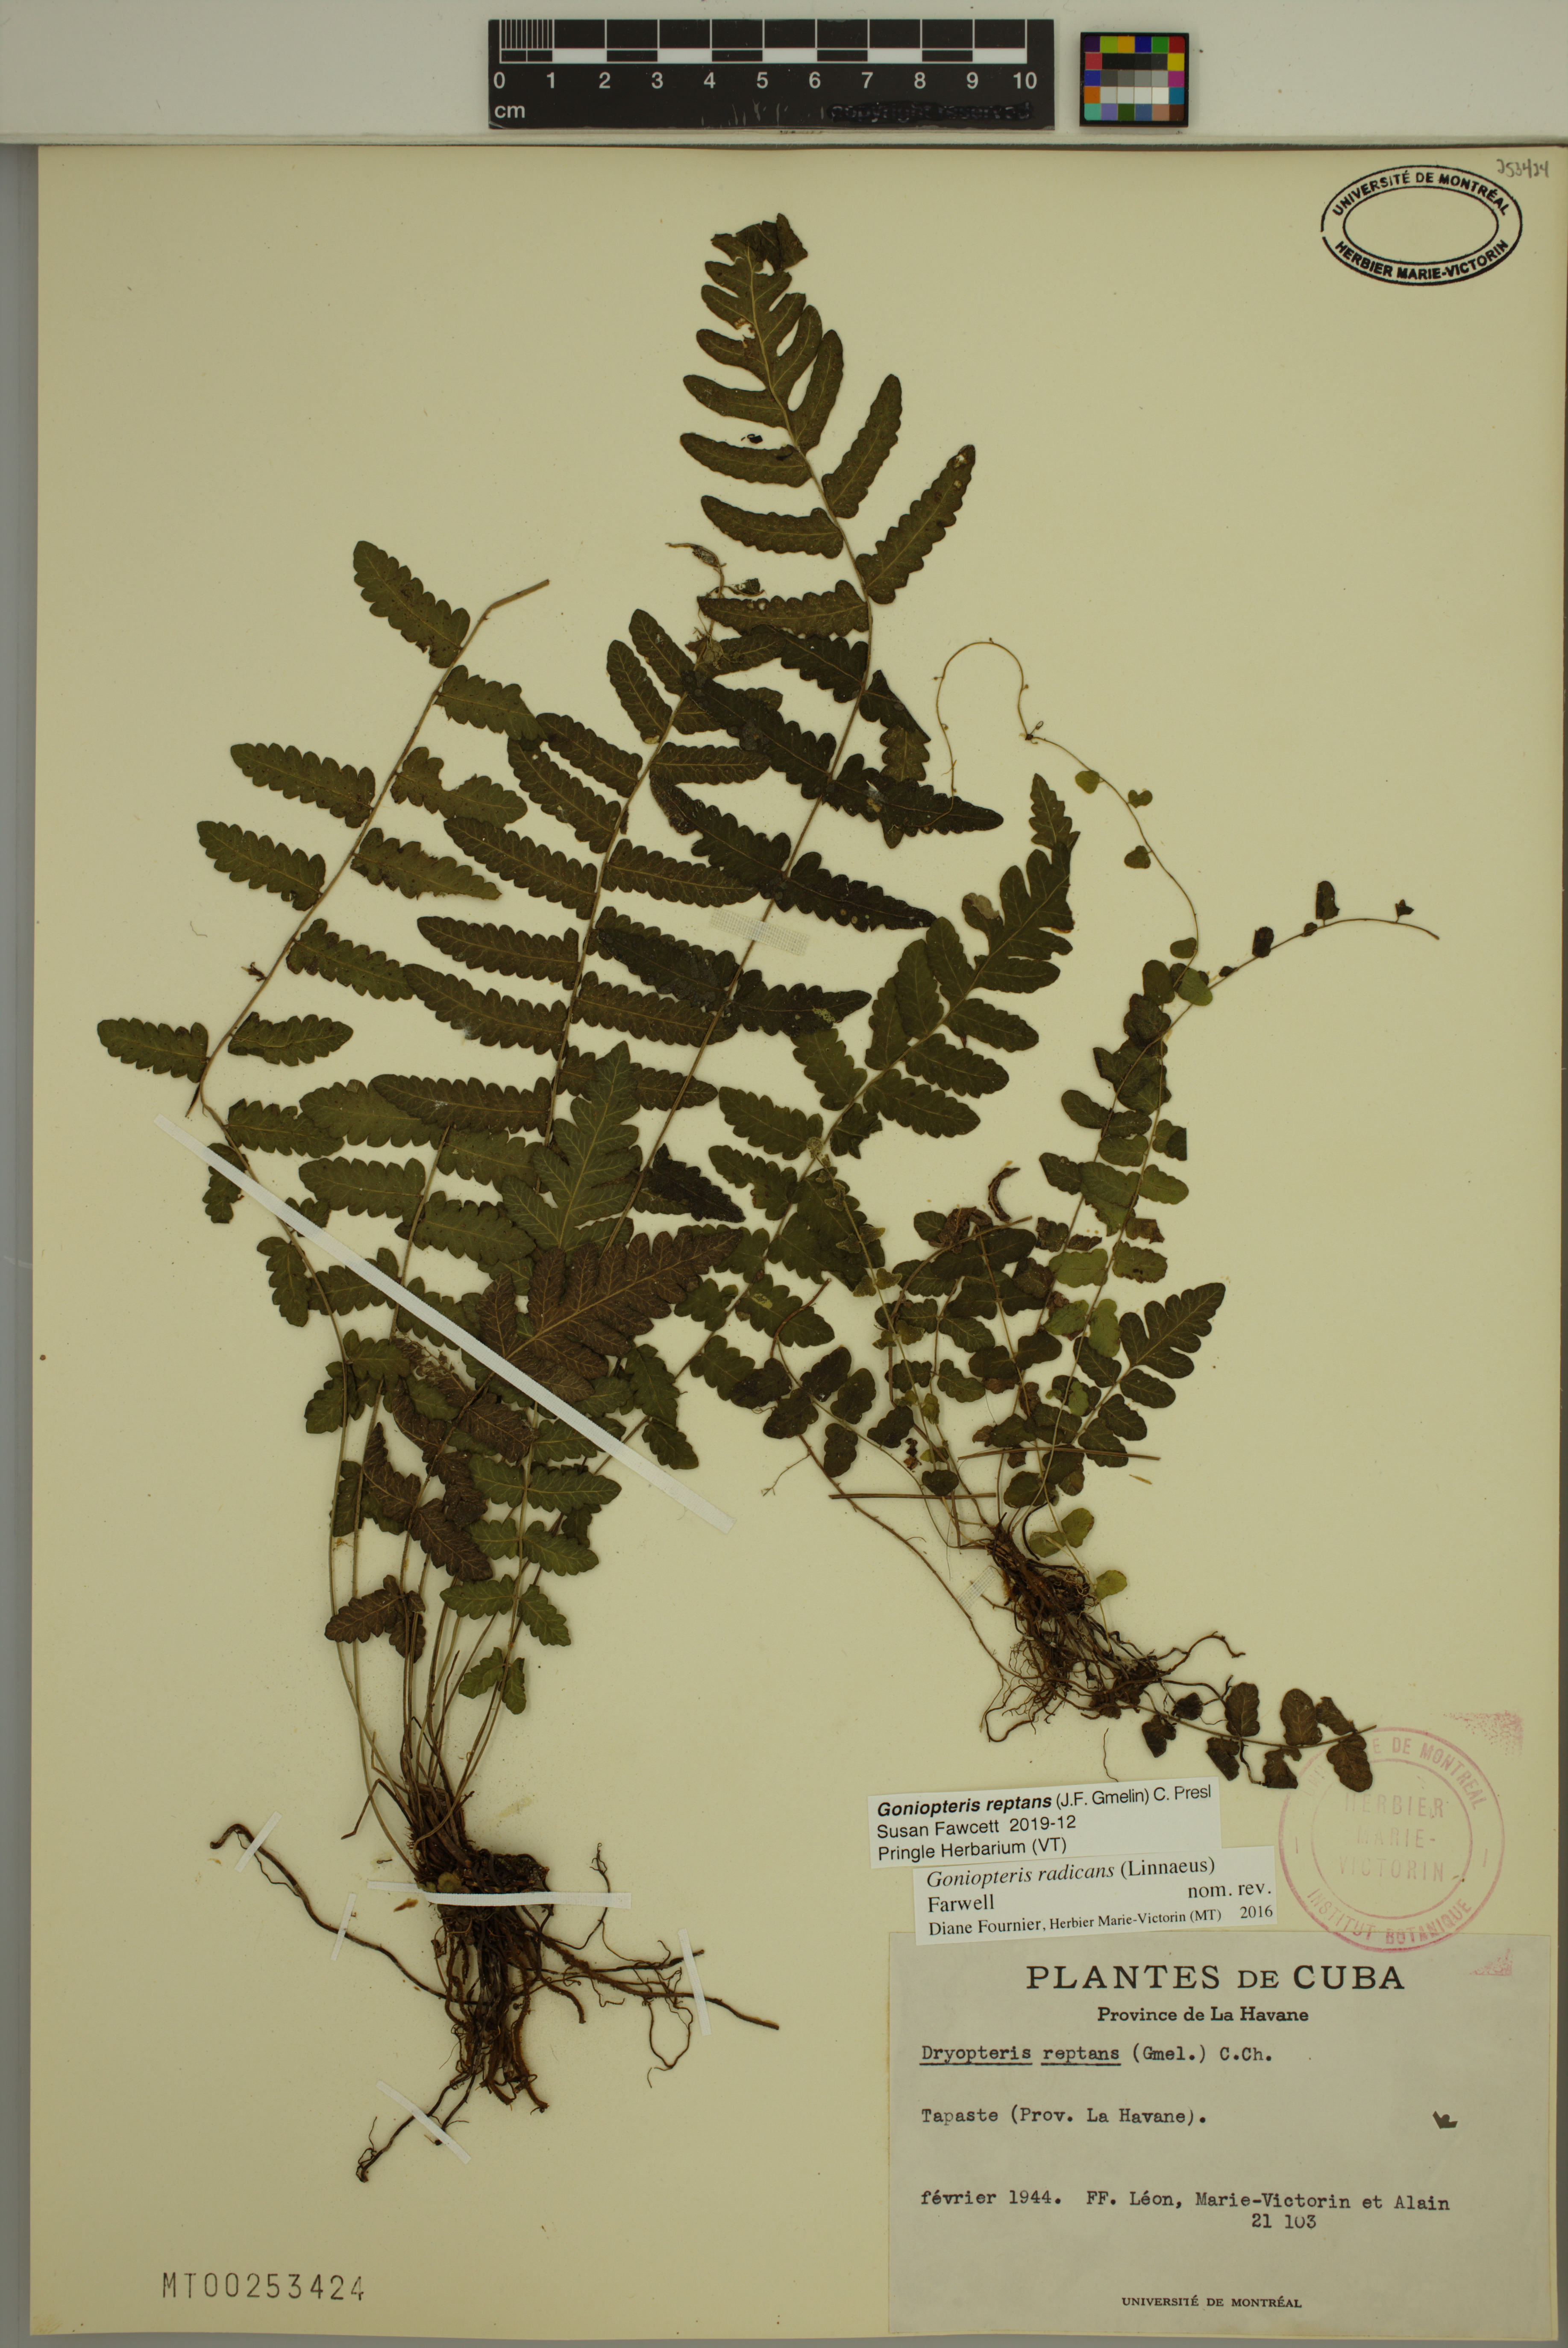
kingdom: Plantae
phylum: Tracheophyta
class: Polypodiopsida
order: Polypodiales
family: Thelypteridaceae
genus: Goniopteris
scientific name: Goniopteris reptans
